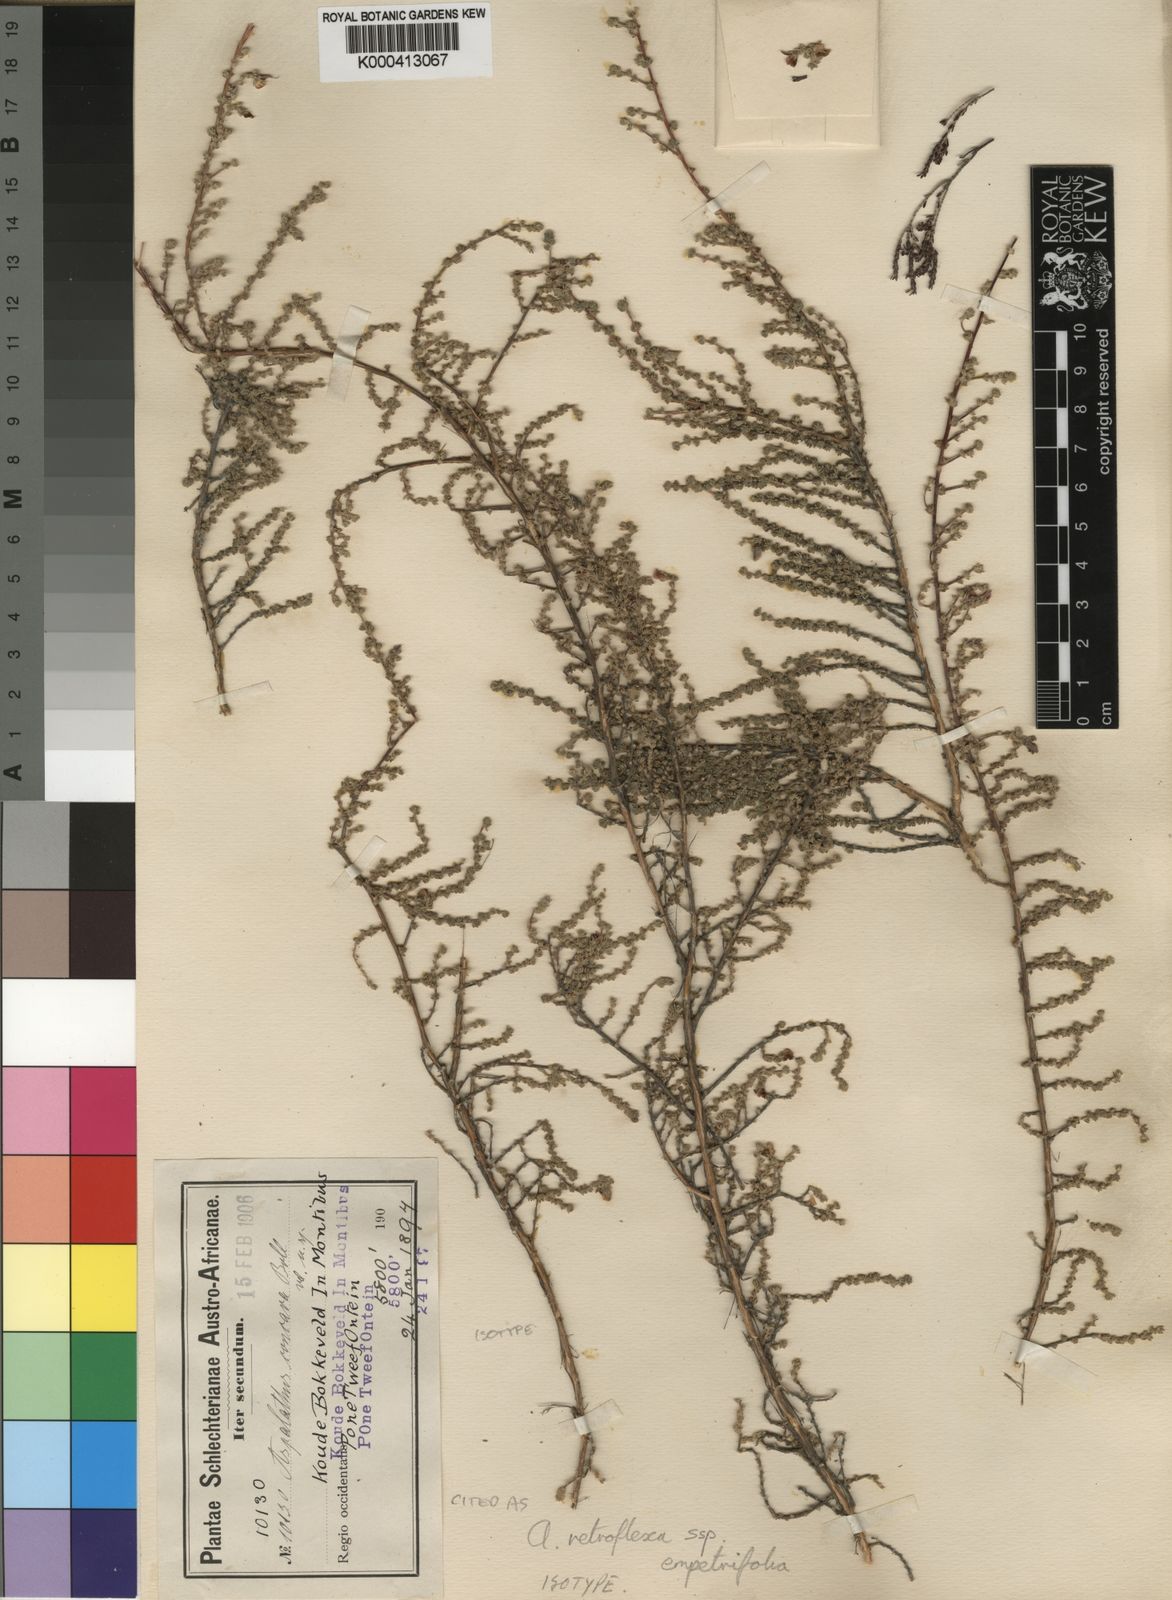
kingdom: Plantae
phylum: Tracheophyta
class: Magnoliopsida
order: Fabales
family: Fabaceae
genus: Aspalathus
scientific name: Aspalathus retroflexa
